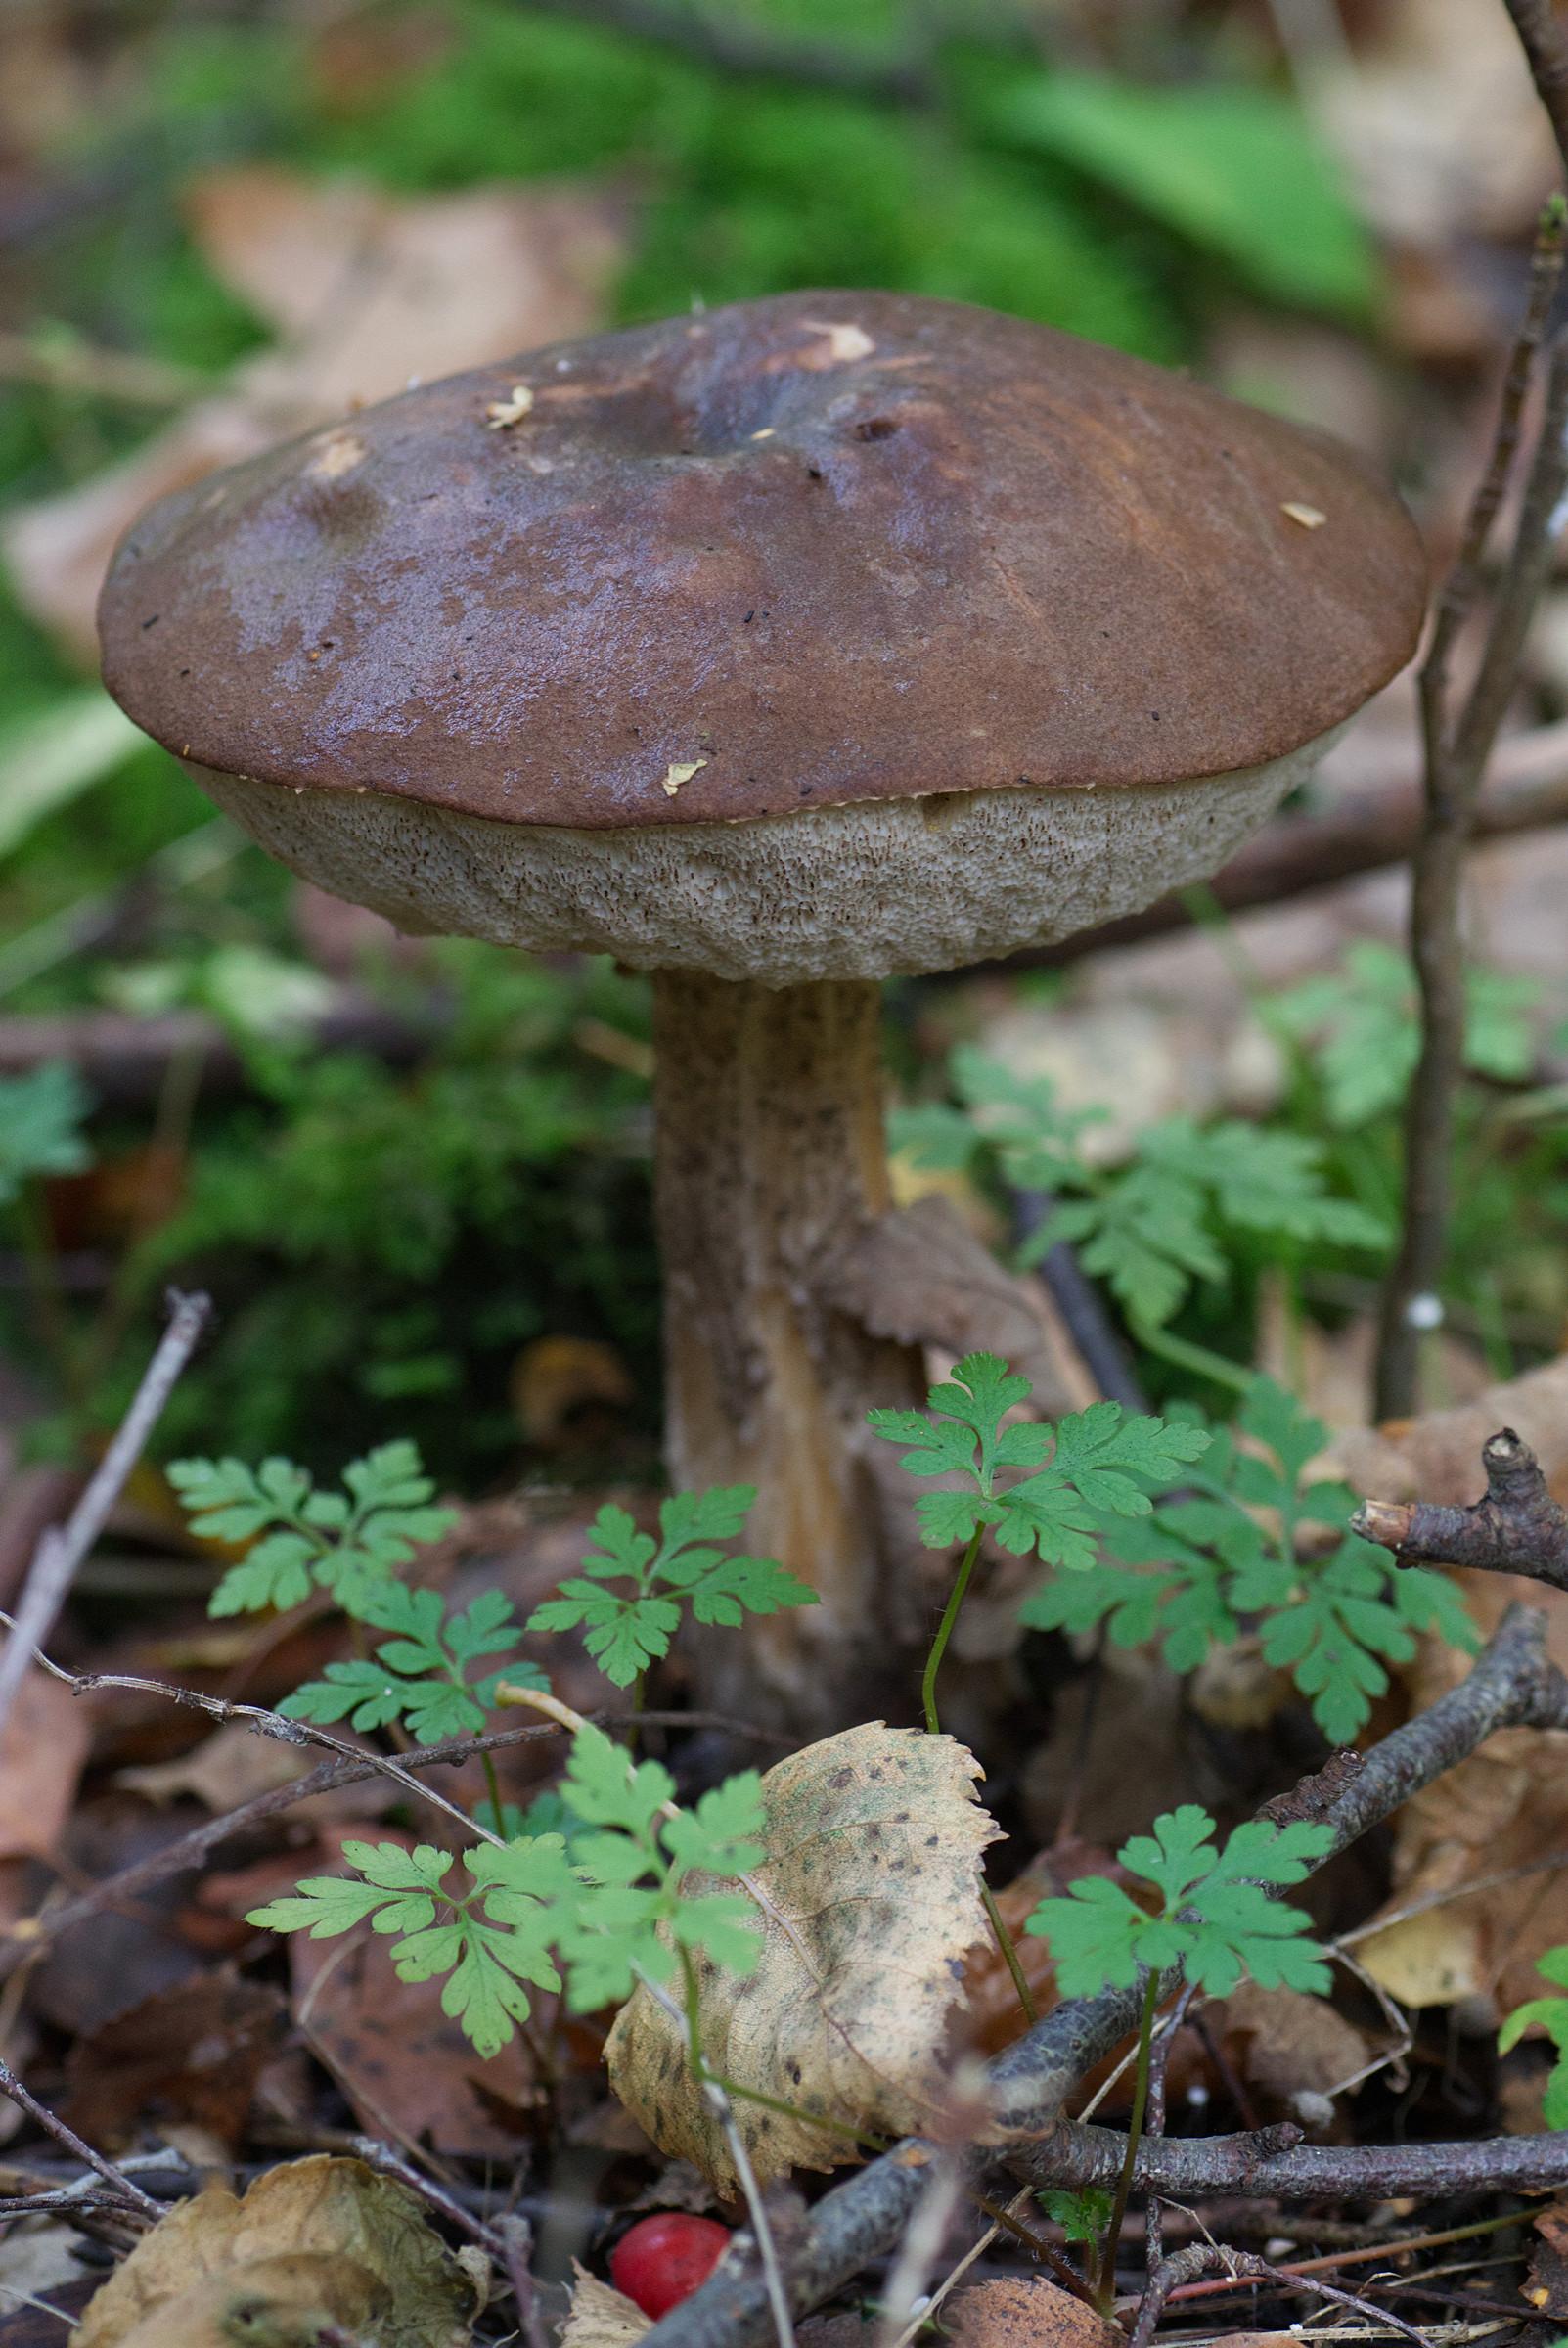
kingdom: Fungi
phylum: Basidiomycota
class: Agaricomycetes
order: Boletales
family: Boletaceae
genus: Leccinum
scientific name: Leccinum scabrum
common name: brun skælrørhat
